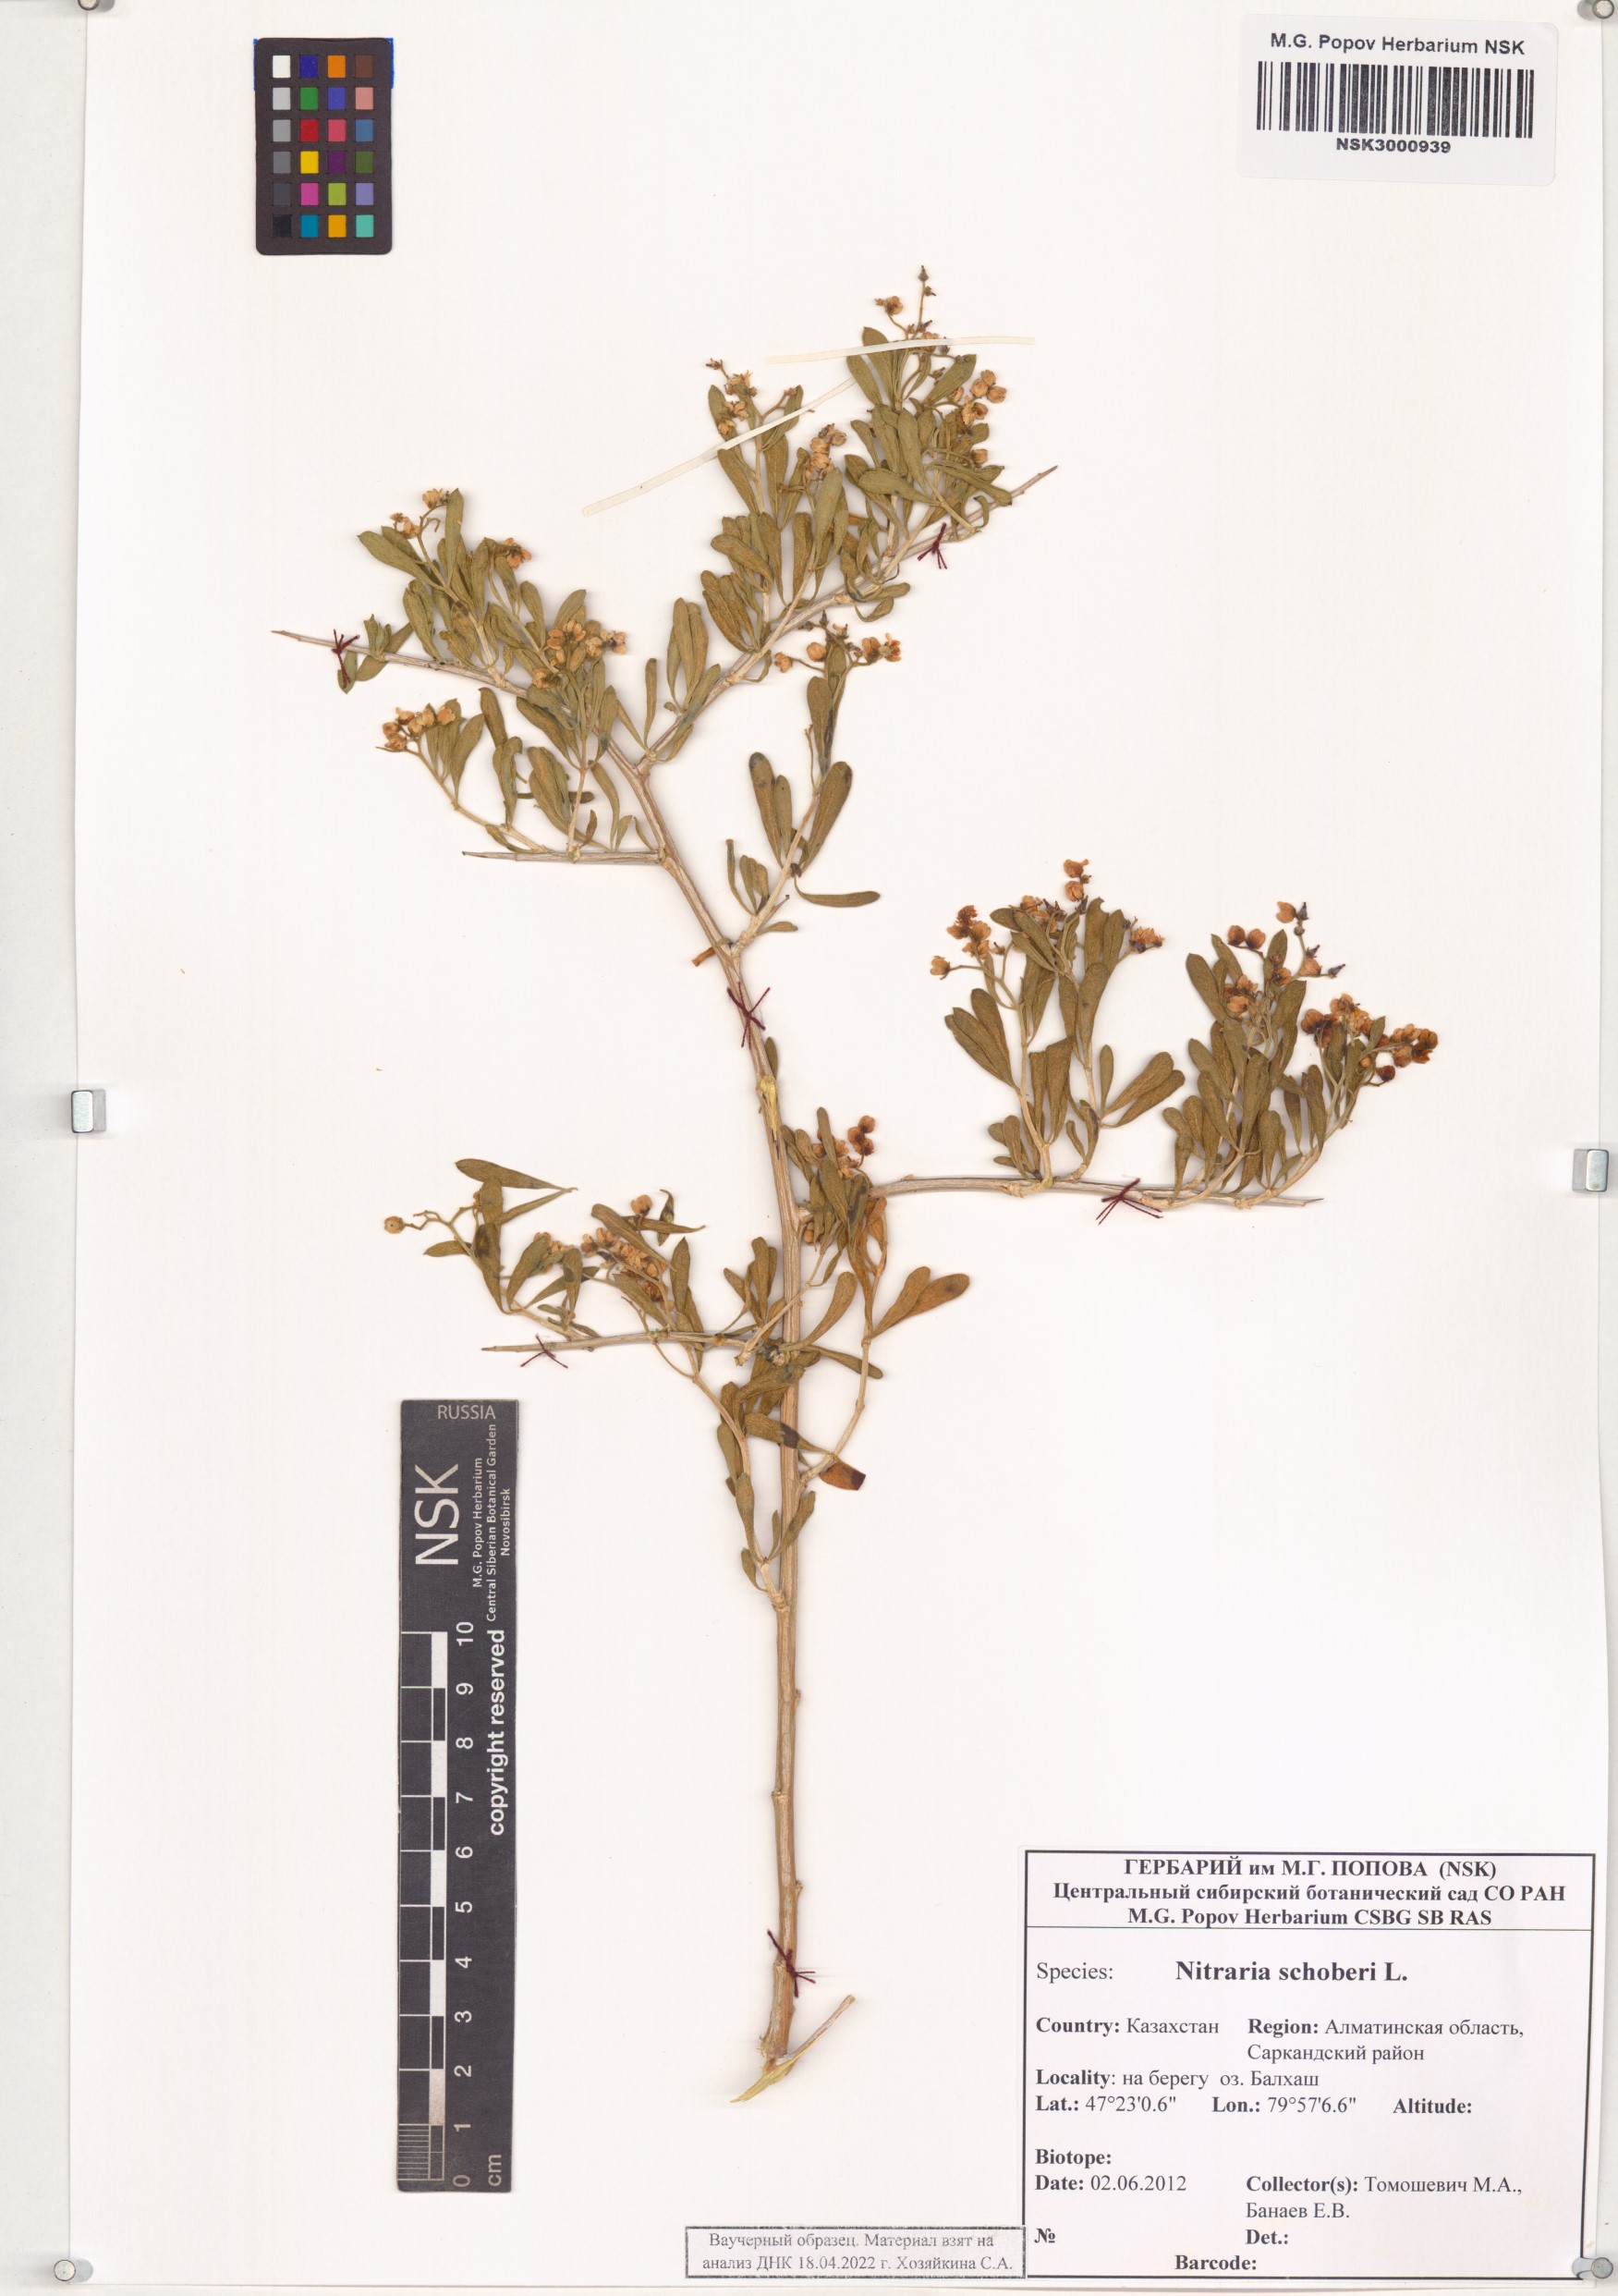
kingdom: Plantae
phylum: Tracheophyta
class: Magnoliopsida
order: Sapindales
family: Nitrariaceae
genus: Nitraria
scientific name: Nitraria schoberi
